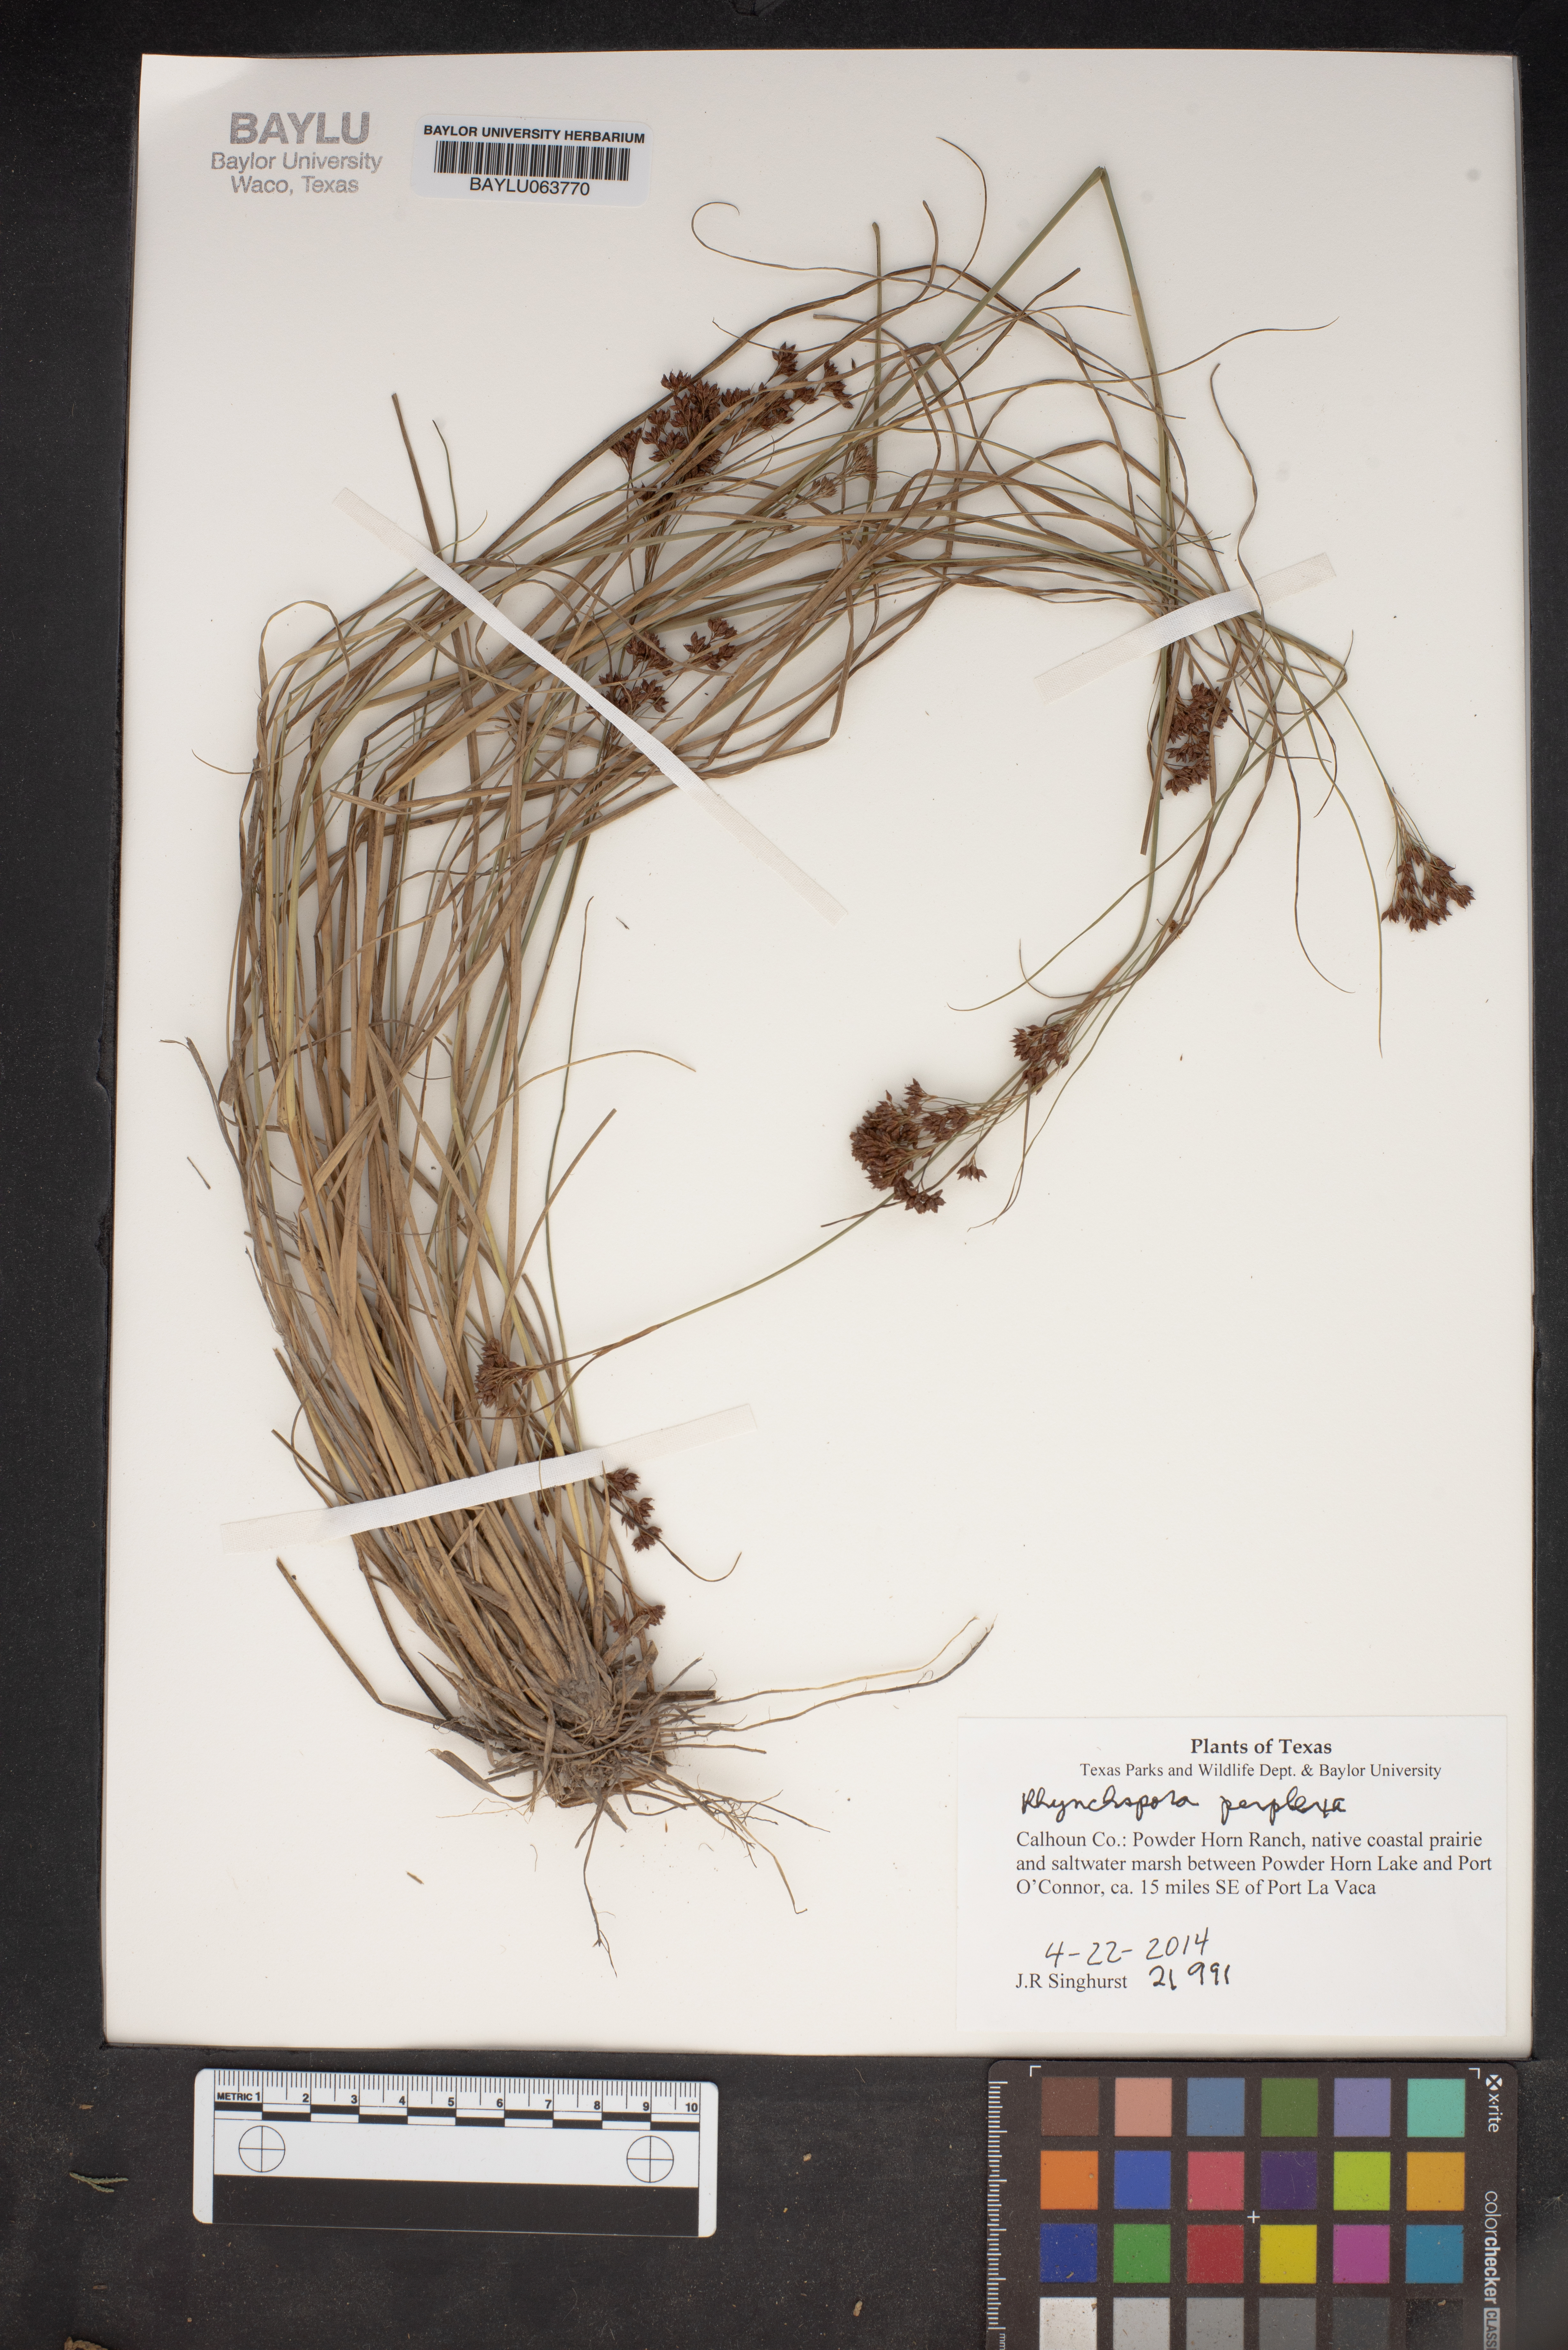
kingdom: Plantae
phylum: Tracheophyta
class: Liliopsida
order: Poales
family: Cyperaceae
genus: Rhynchospora
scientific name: Rhynchospora perplexa
